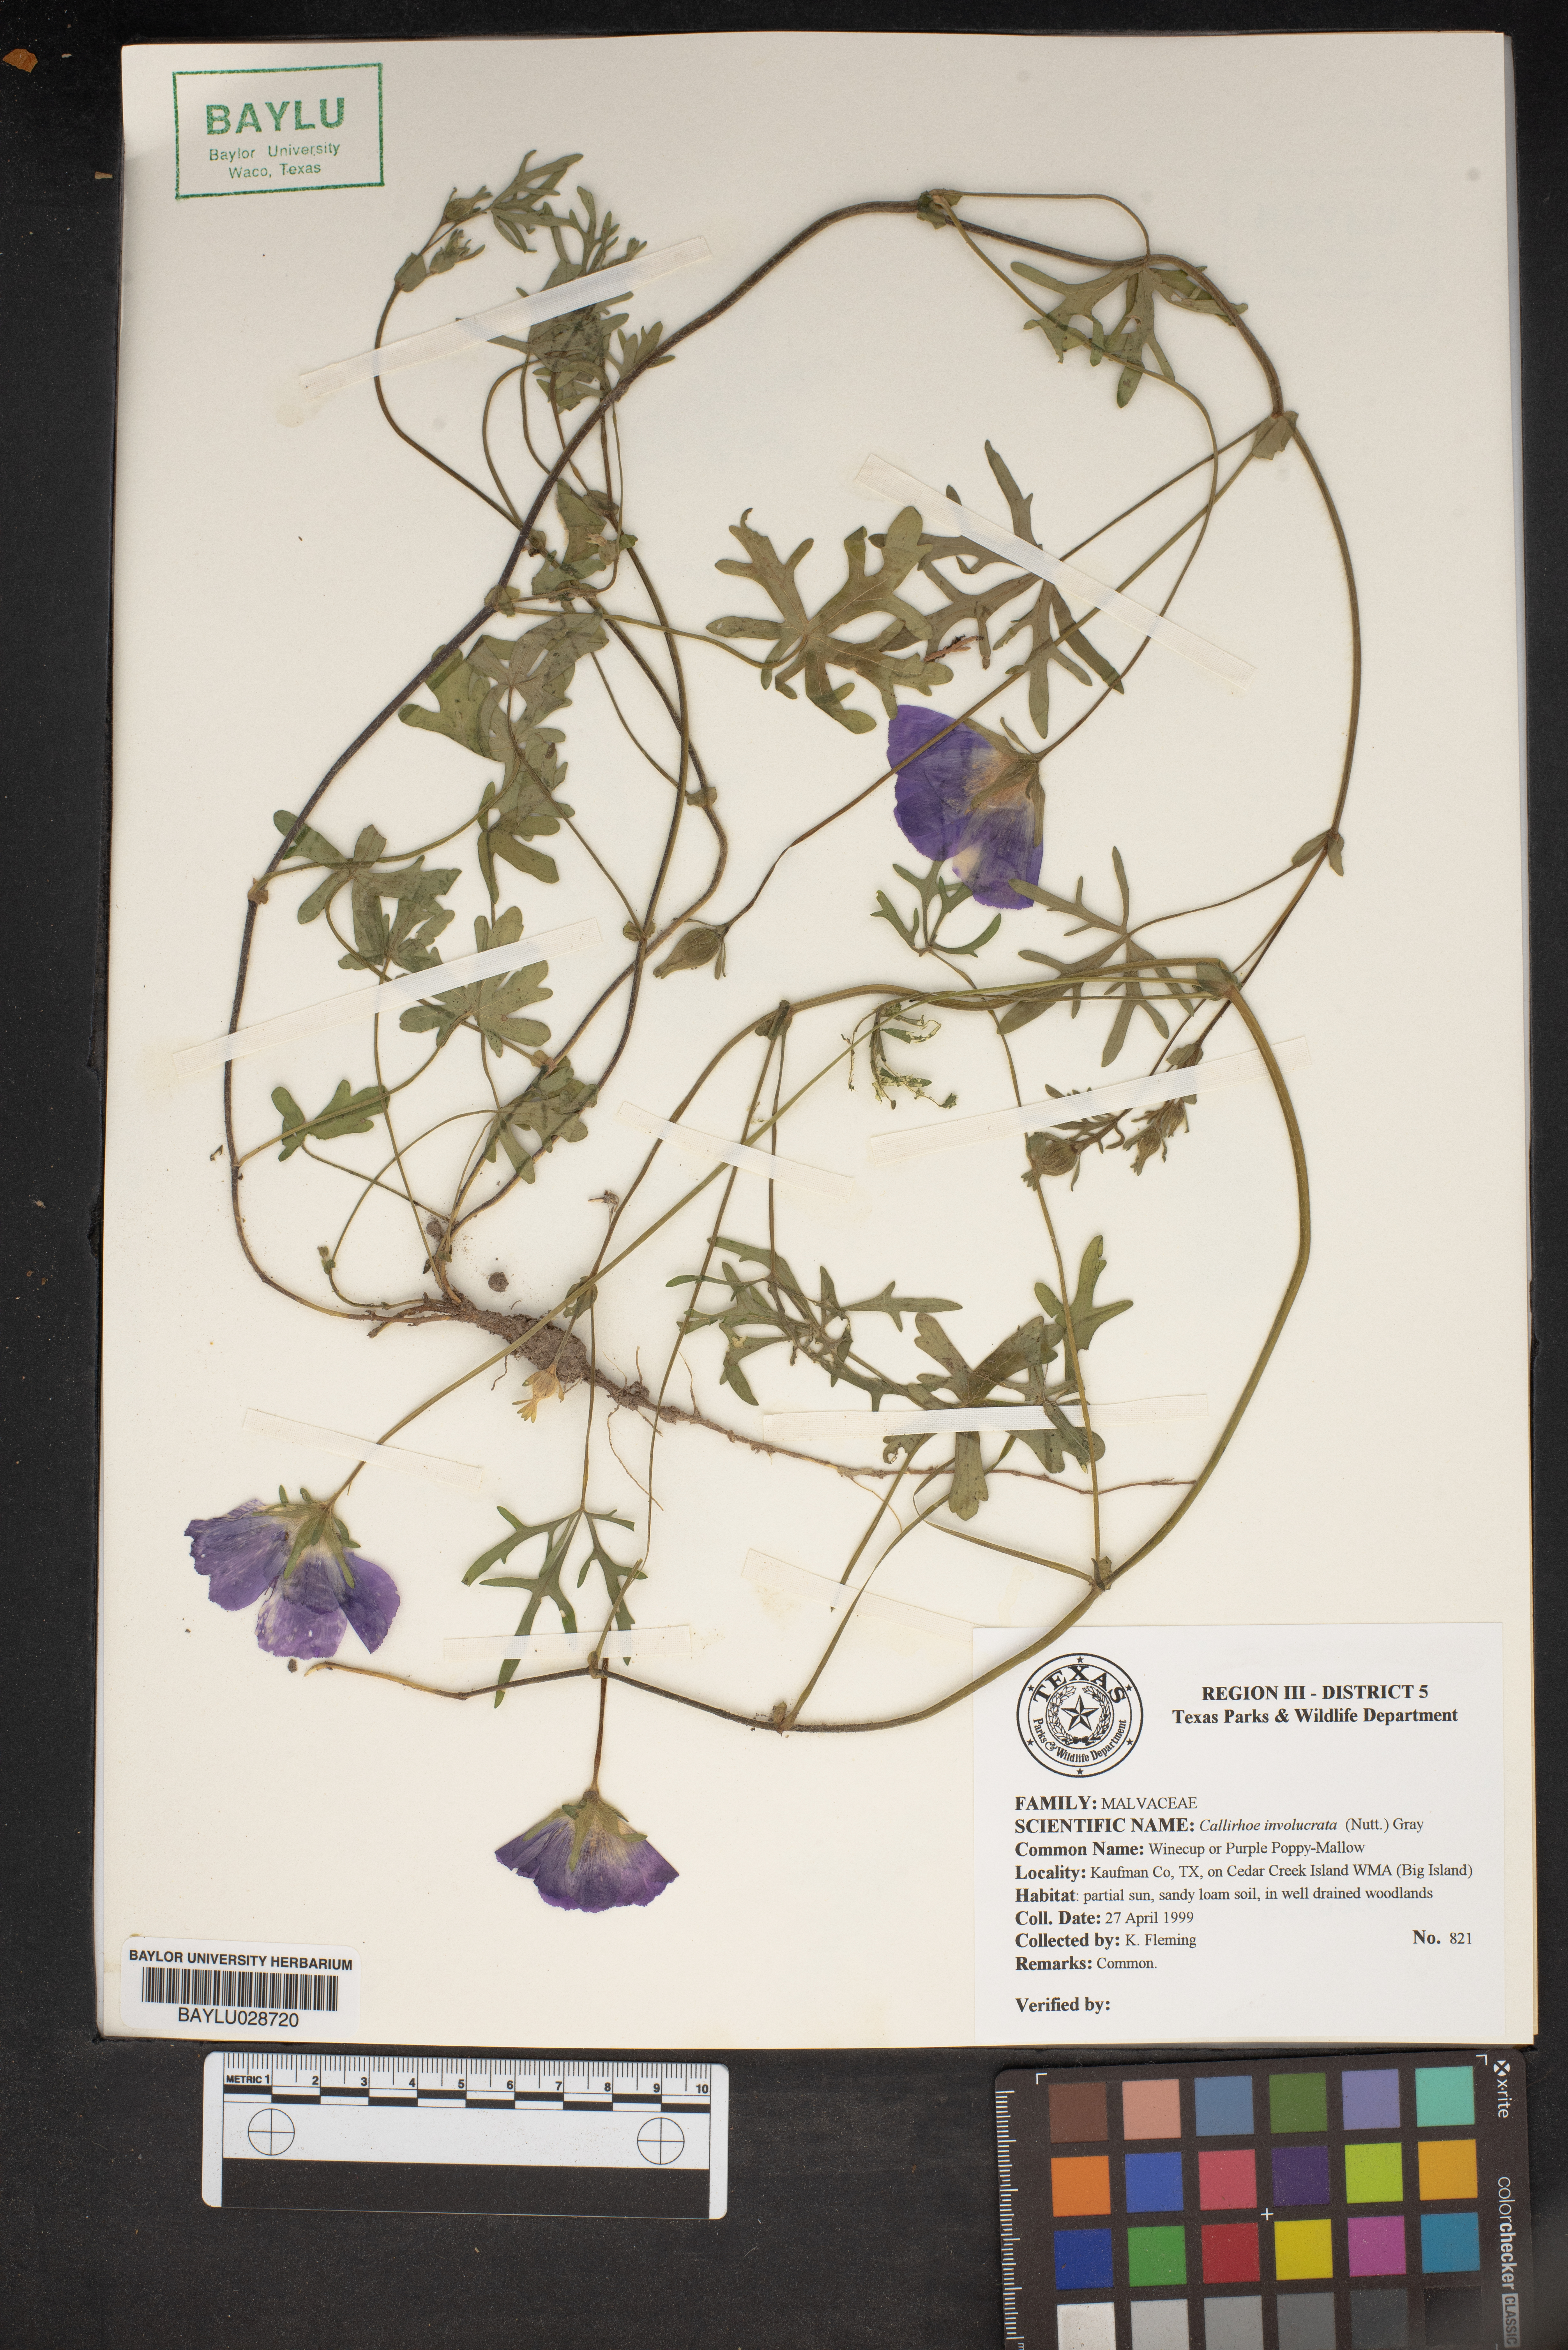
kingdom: Plantae
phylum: Tracheophyta
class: Magnoliopsida
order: Malvales
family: Malvaceae
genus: Callirhoe
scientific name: Callirhoe involucrata
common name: Purple poppy-mallow
